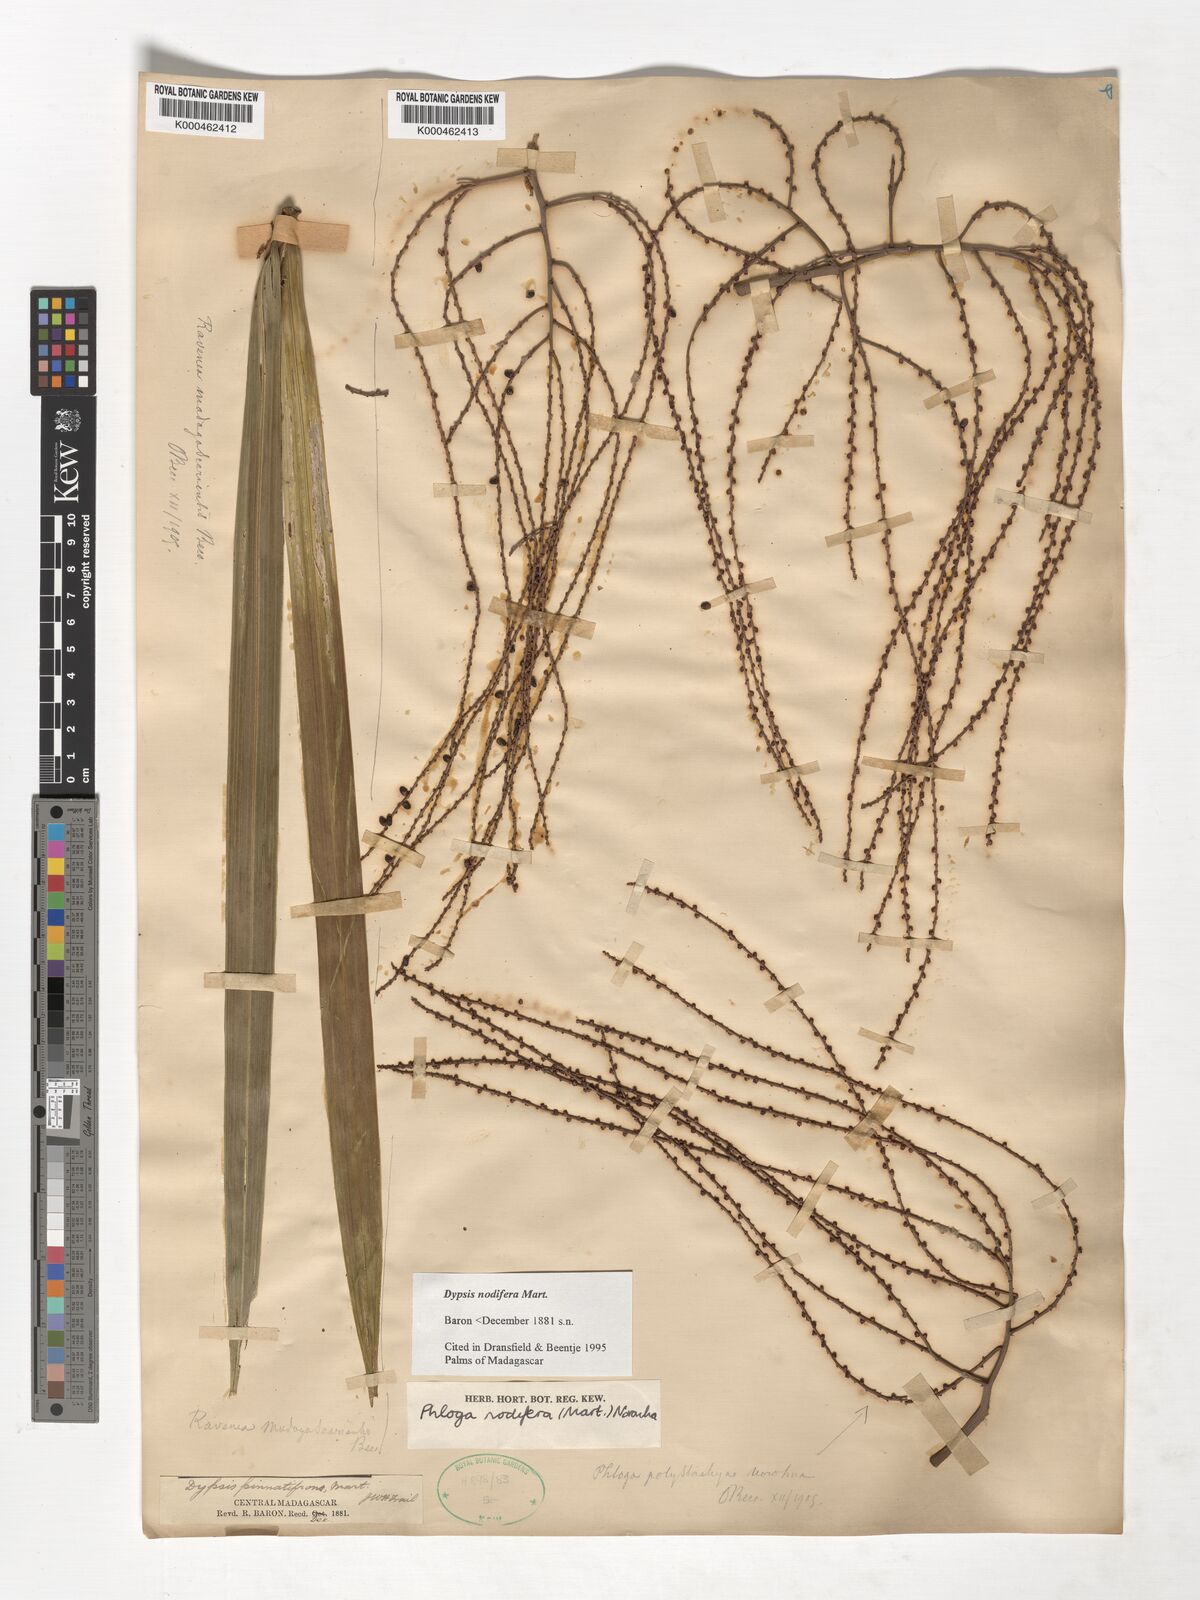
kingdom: Plantae
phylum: Tracheophyta
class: Liliopsida
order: Arecales
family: Arecaceae
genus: Dypsis
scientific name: Dypsis nodifera
